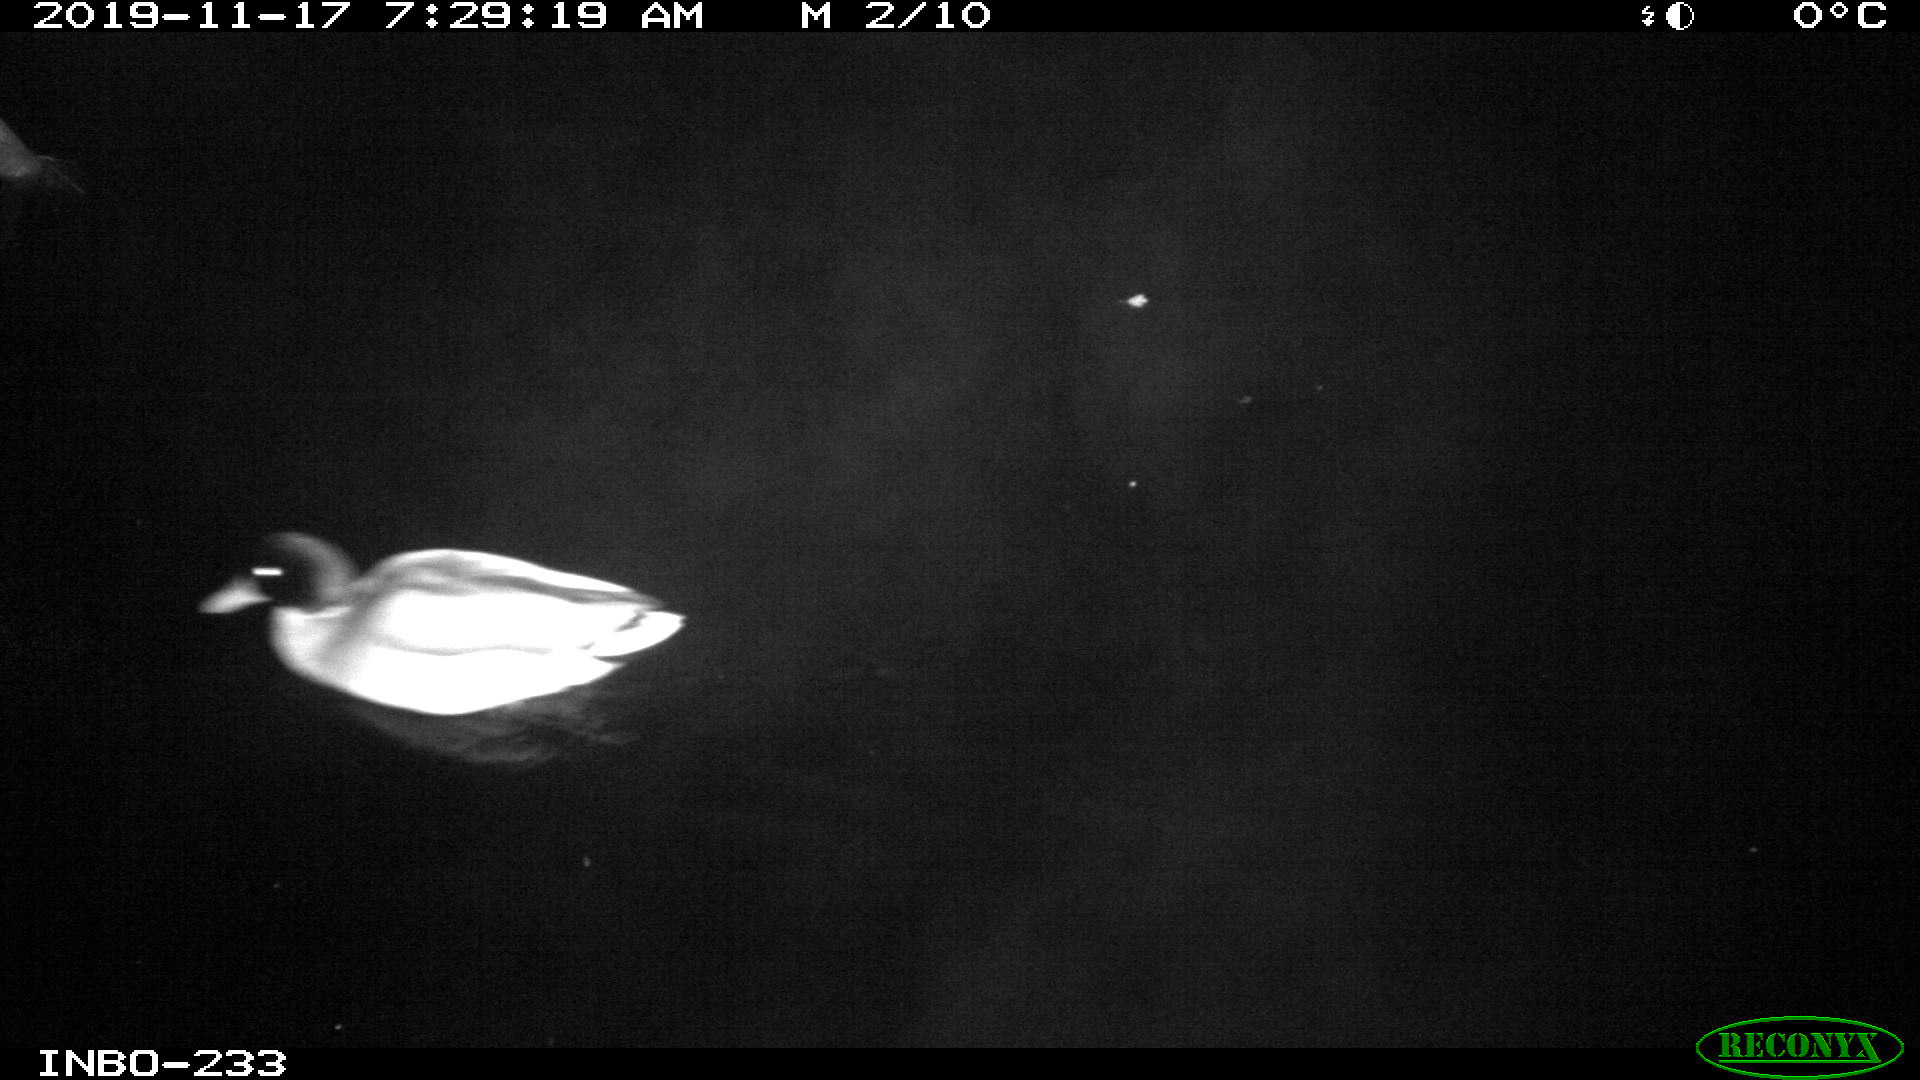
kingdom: Animalia
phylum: Chordata
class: Aves
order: Anseriformes
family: Anatidae
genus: Anas
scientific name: Anas platyrhynchos
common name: Mallard
